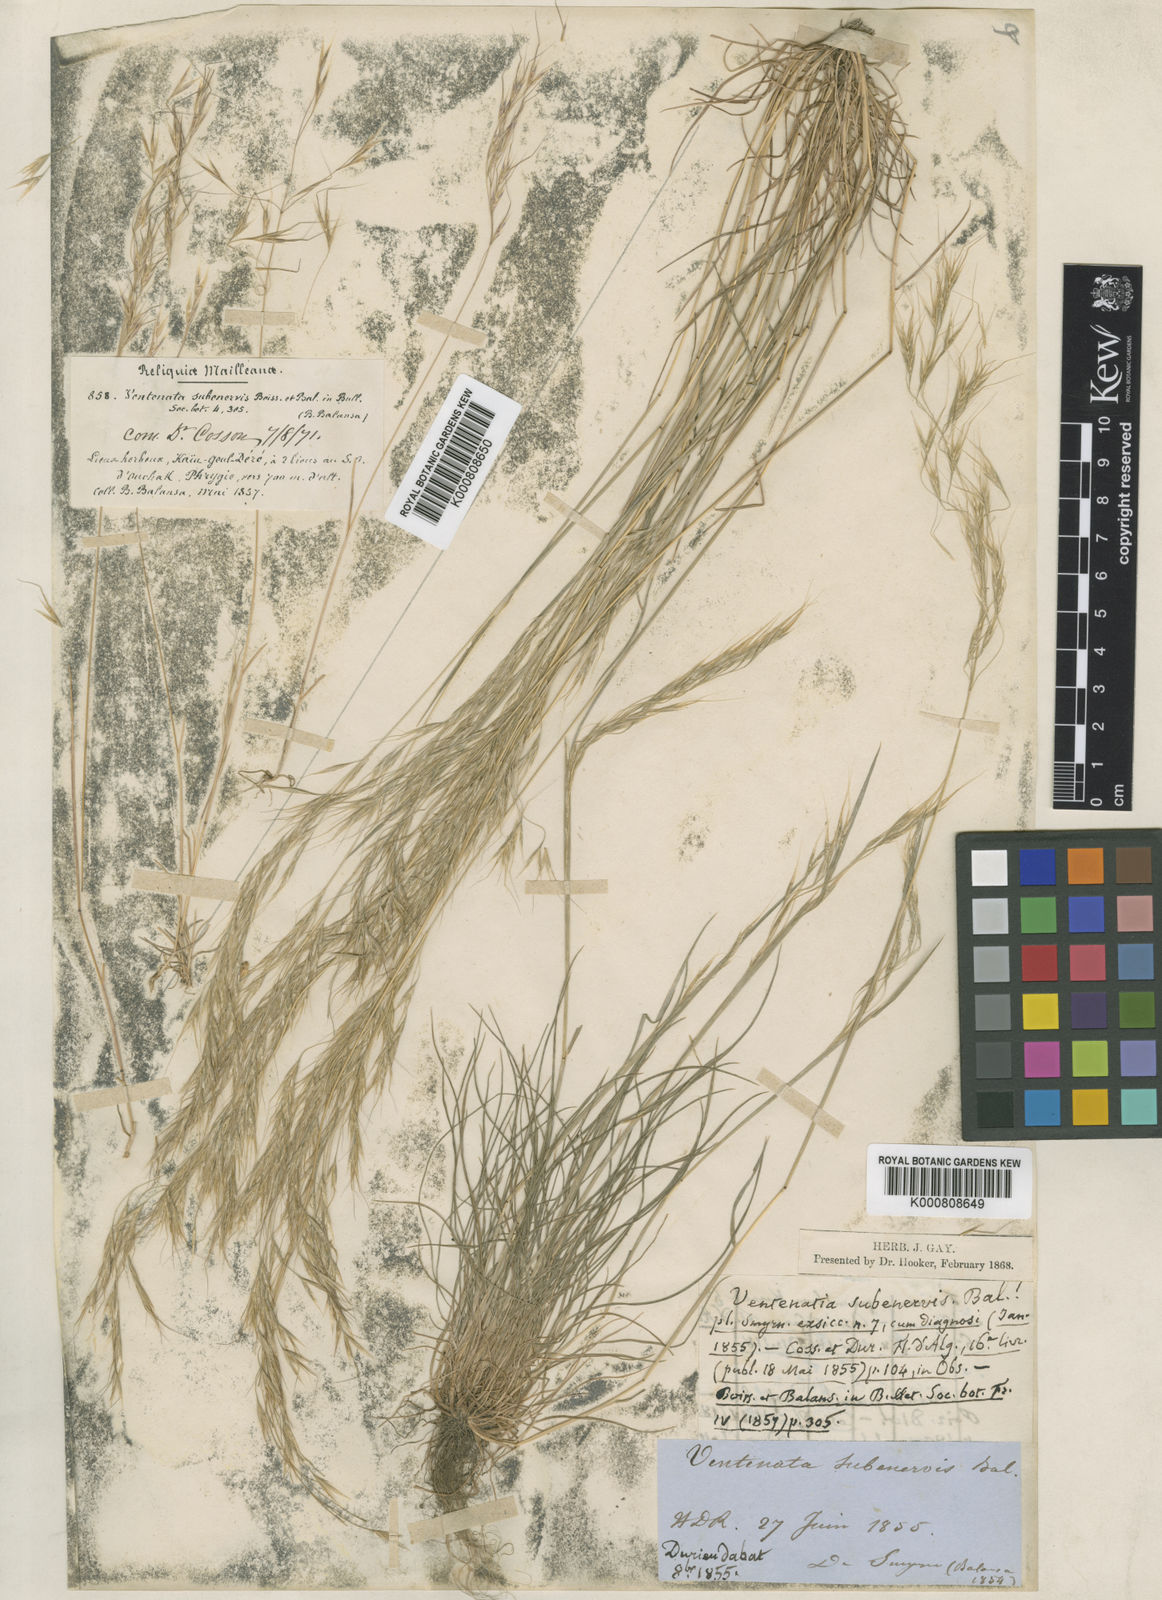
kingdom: Plantae
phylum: Tracheophyta
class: Liliopsida
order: Poales
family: Poaceae
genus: Ventenata
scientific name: Ventenata subenervis
